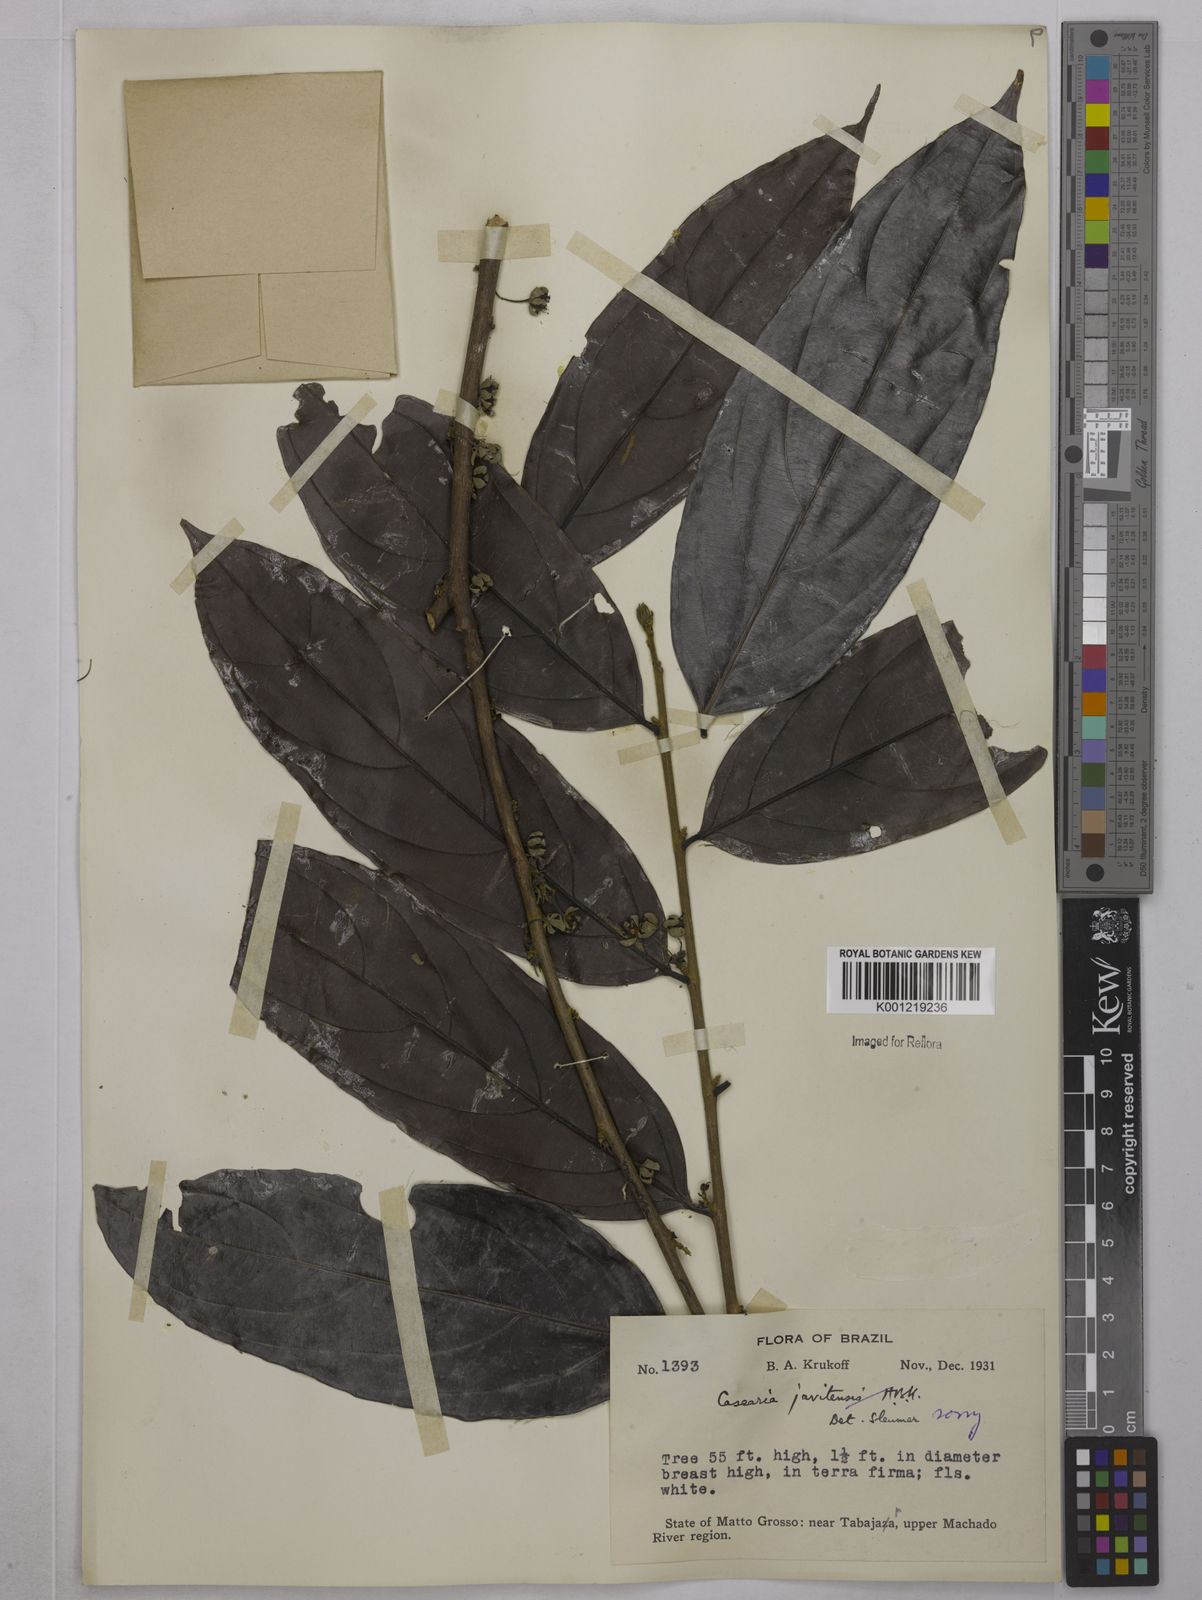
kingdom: Plantae
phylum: Tracheophyta
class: Magnoliopsida
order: Malpighiales
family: Salicaceae
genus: Piparea
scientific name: Piparea multiflora
